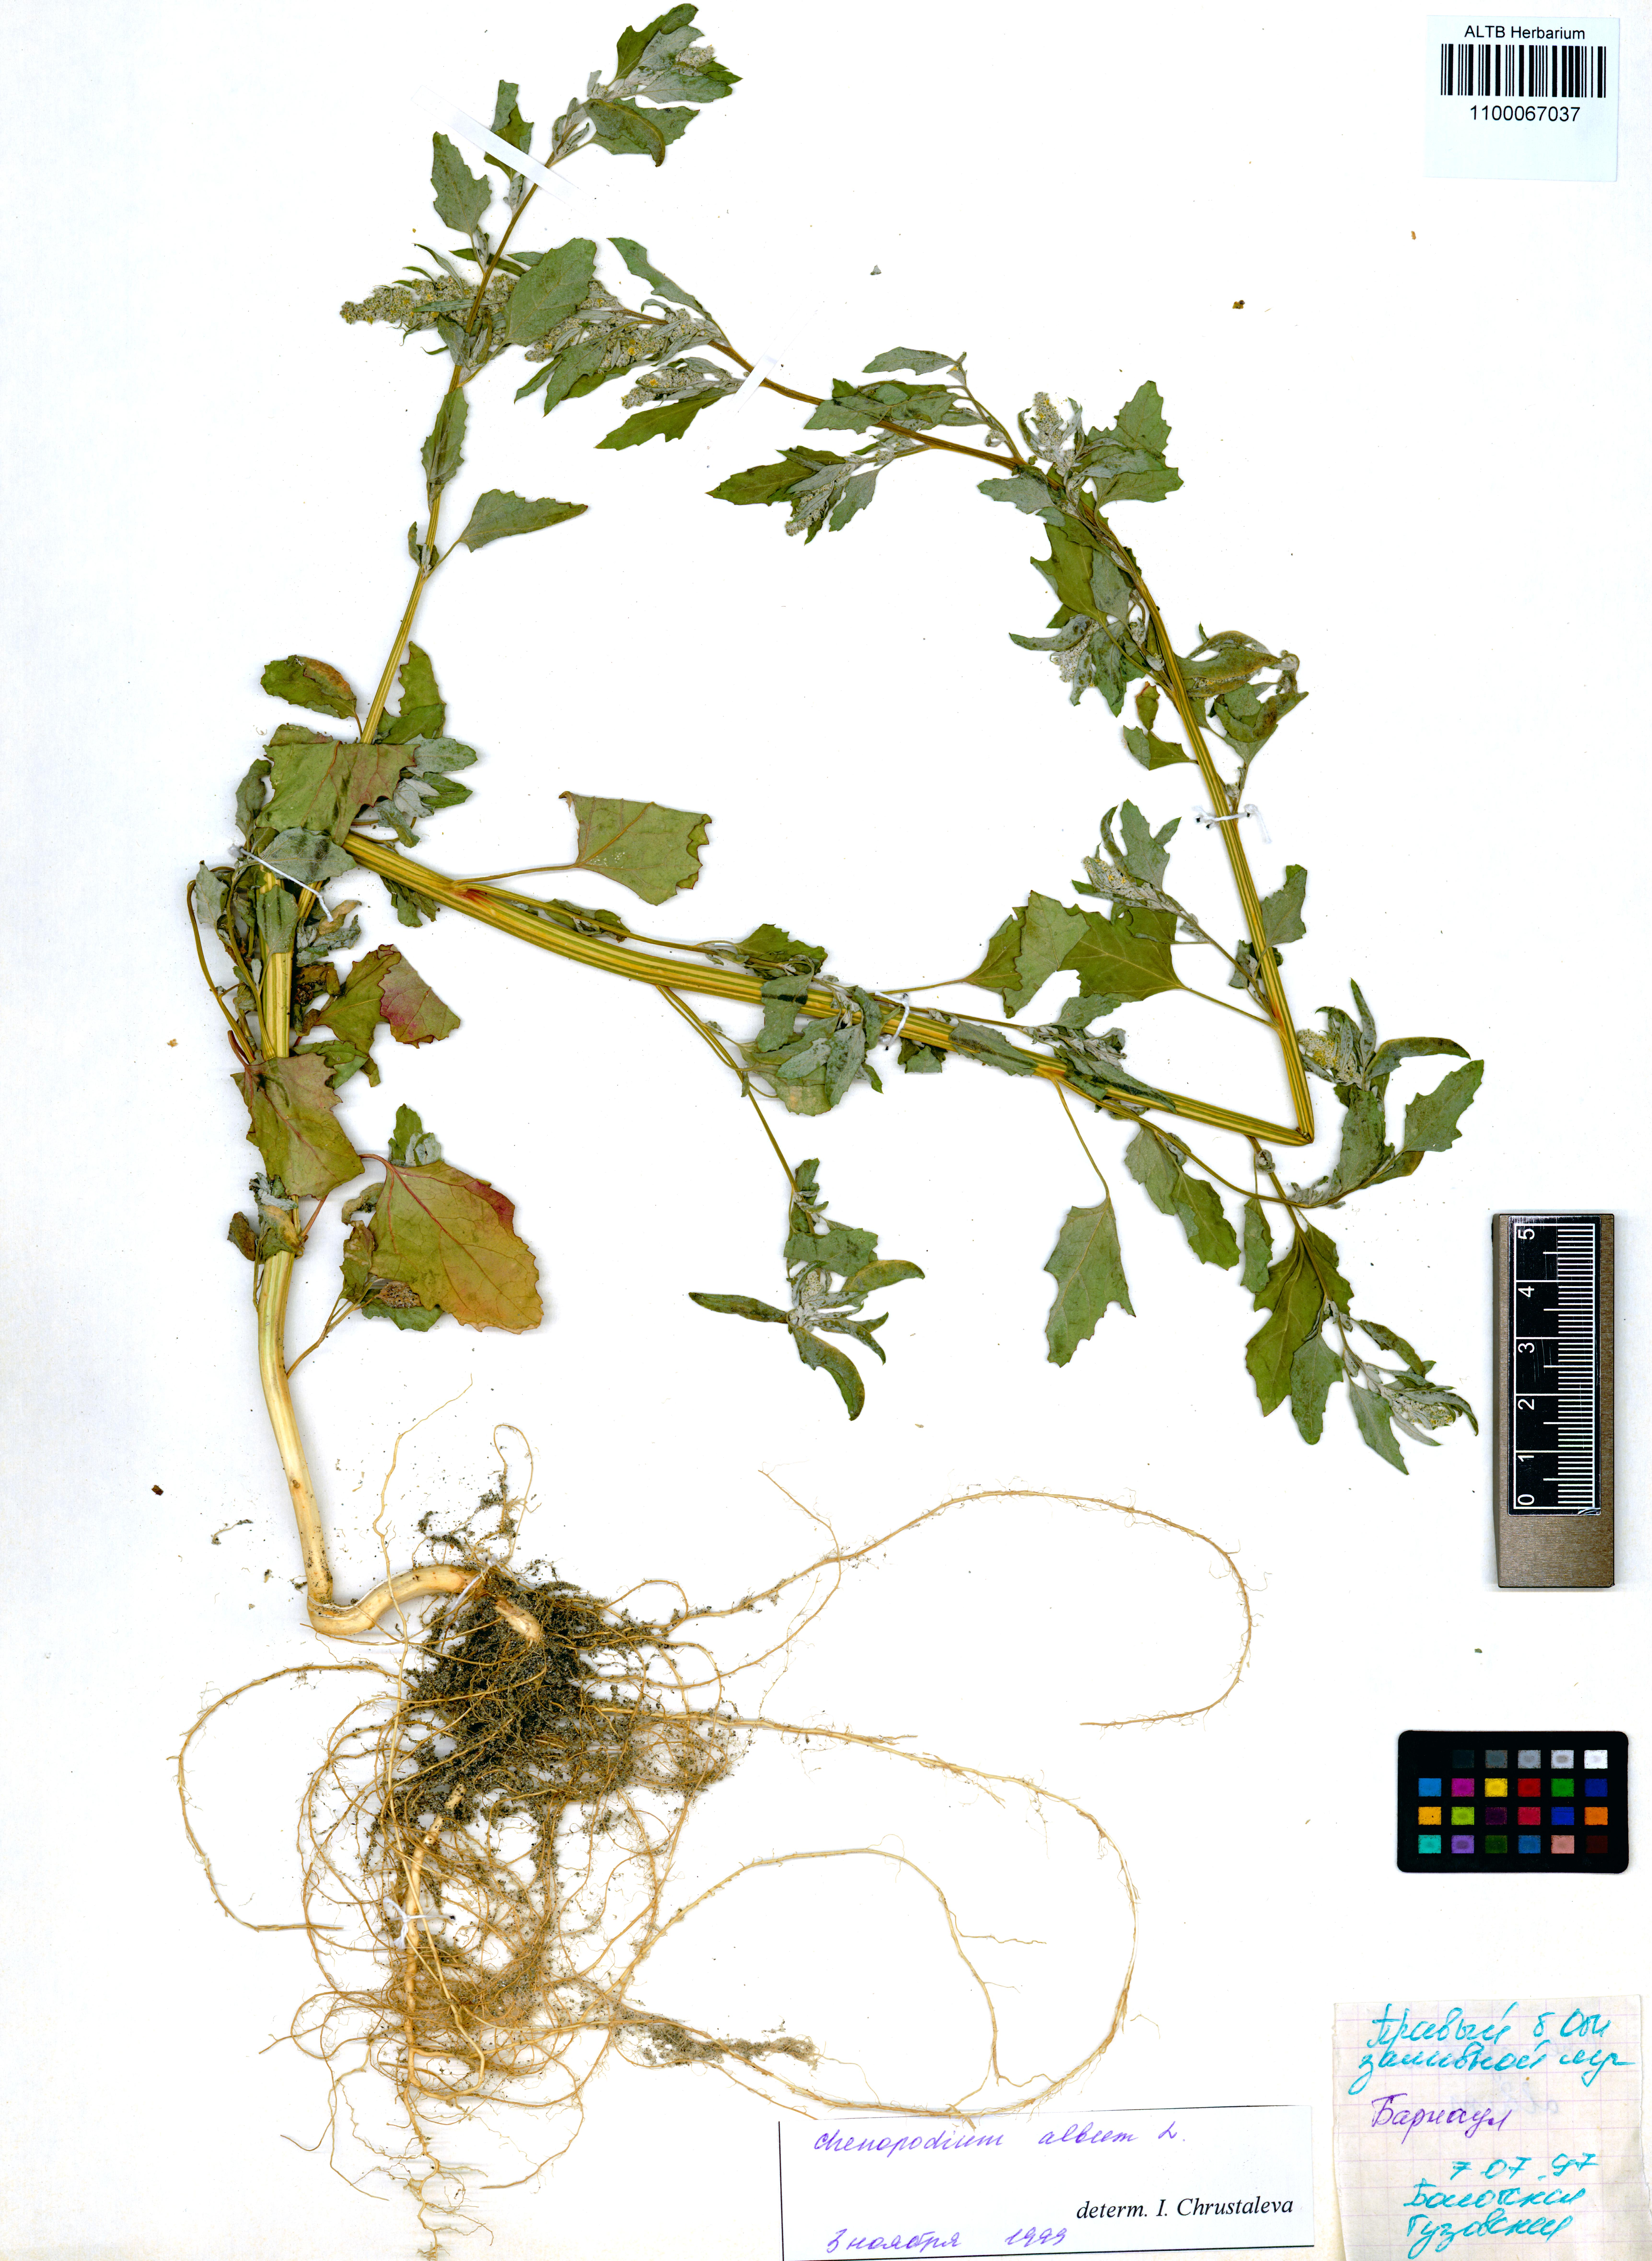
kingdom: Plantae
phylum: Tracheophyta
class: Magnoliopsida
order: Caryophyllales
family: Amaranthaceae
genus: Chenopodium
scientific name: Chenopodium album
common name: Fat-hen
